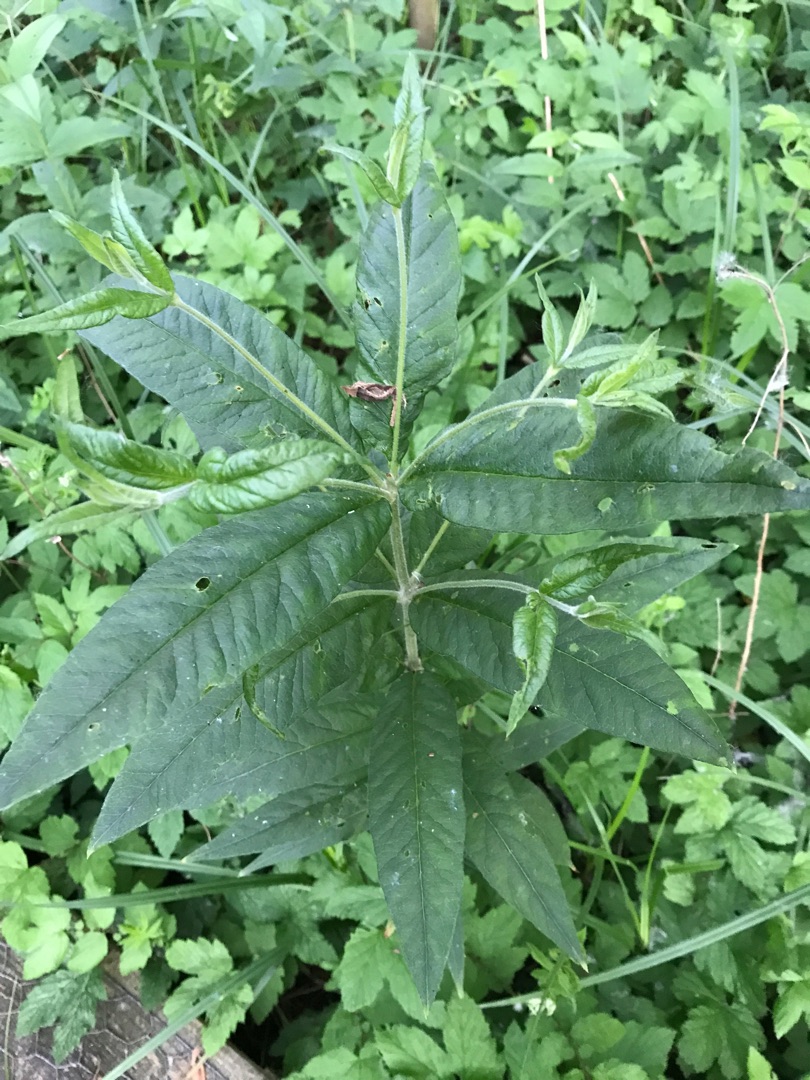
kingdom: Plantae
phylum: Tracheophyta
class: Magnoliopsida
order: Ericales
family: Primulaceae
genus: Lysimachia
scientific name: Lysimachia vulgaris
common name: Almindelig fredløs
